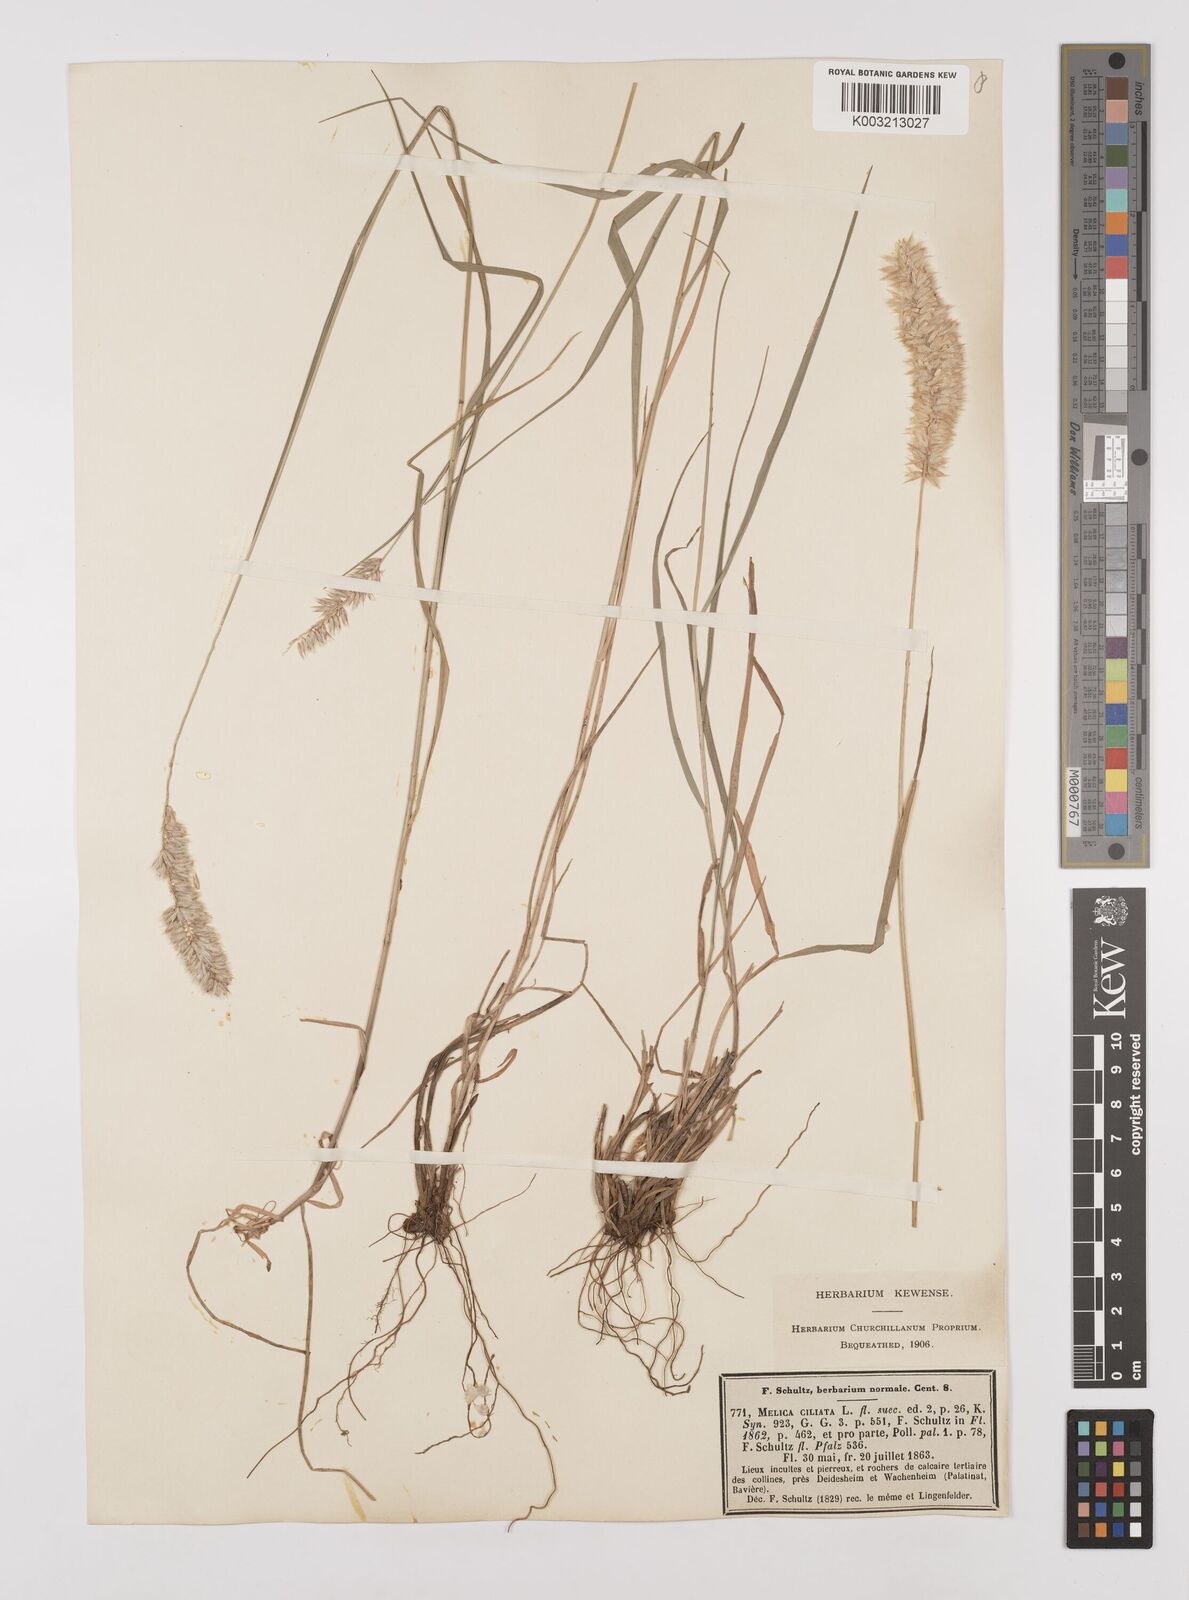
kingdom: Plantae
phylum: Tracheophyta
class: Liliopsida
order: Poales
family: Poaceae
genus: Melica
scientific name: Melica ciliata
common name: Hairy melicgrass
